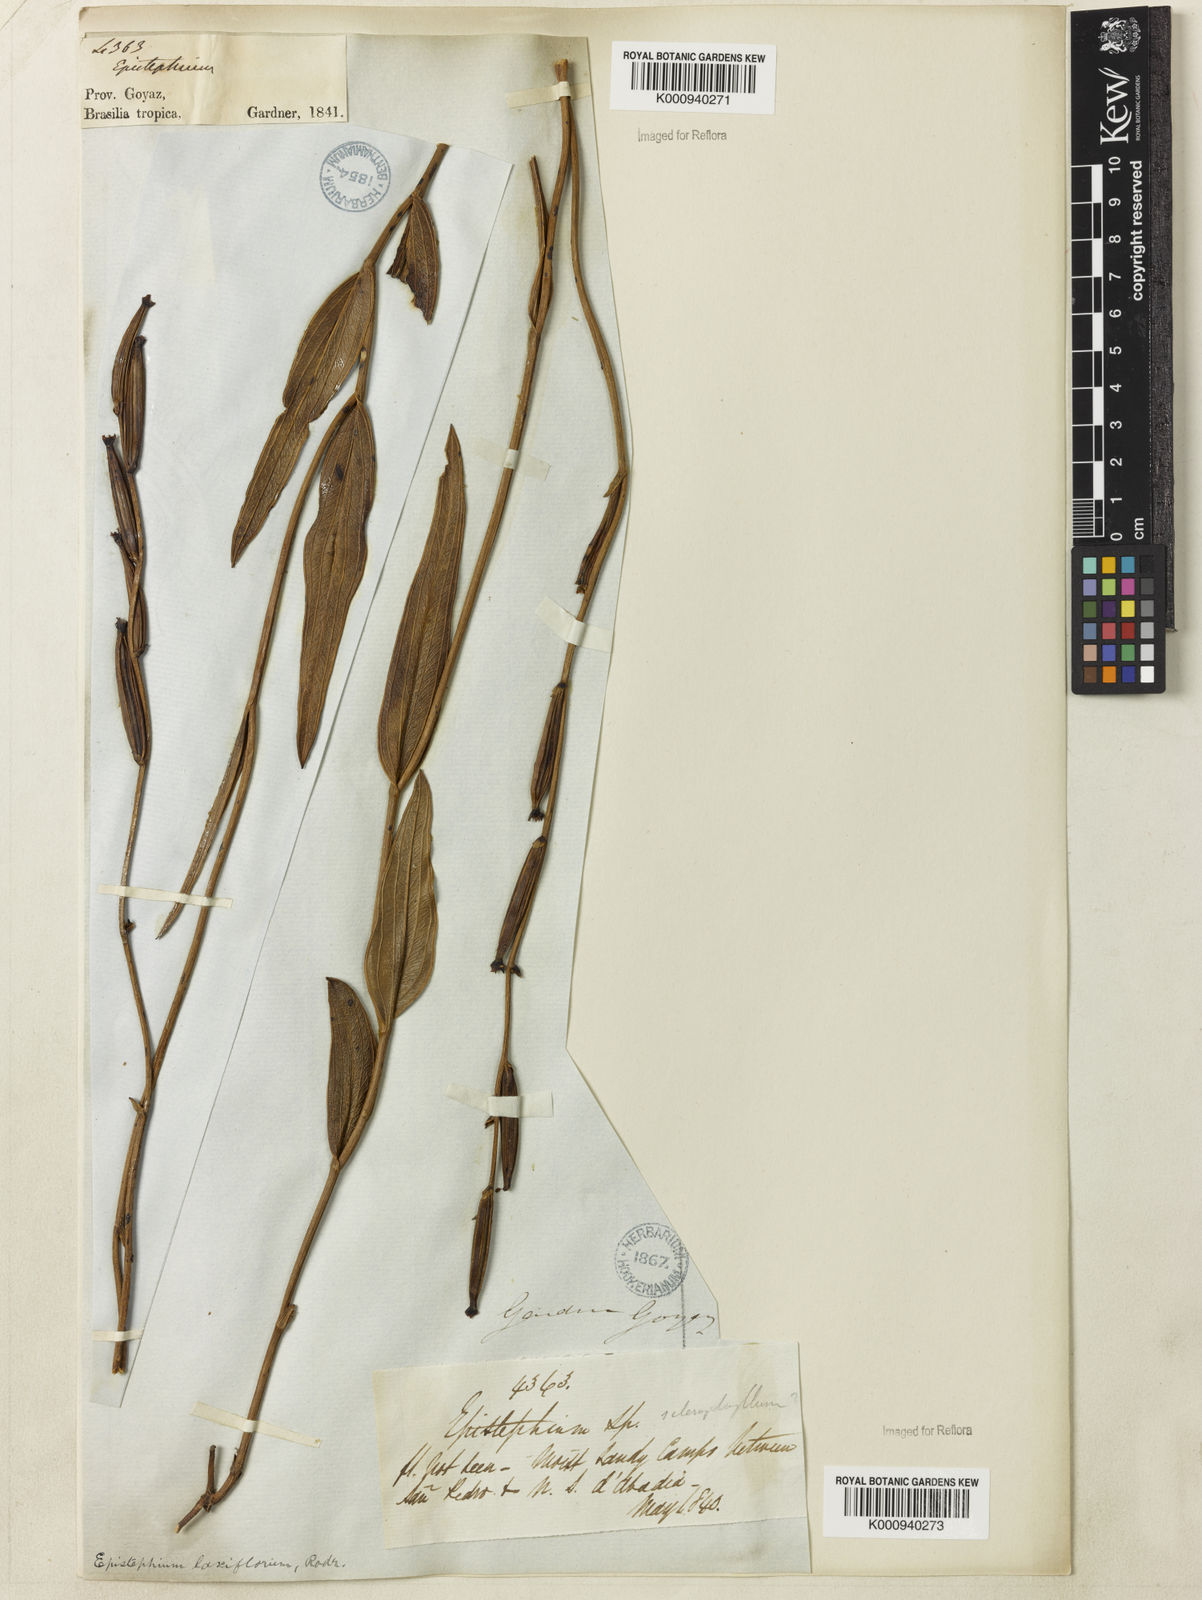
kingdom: Plantae
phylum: Tracheophyta
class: Liliopsida
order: Asparagales
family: Orchidaceae
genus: Epistephium
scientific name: Epistephium laxiflorum
